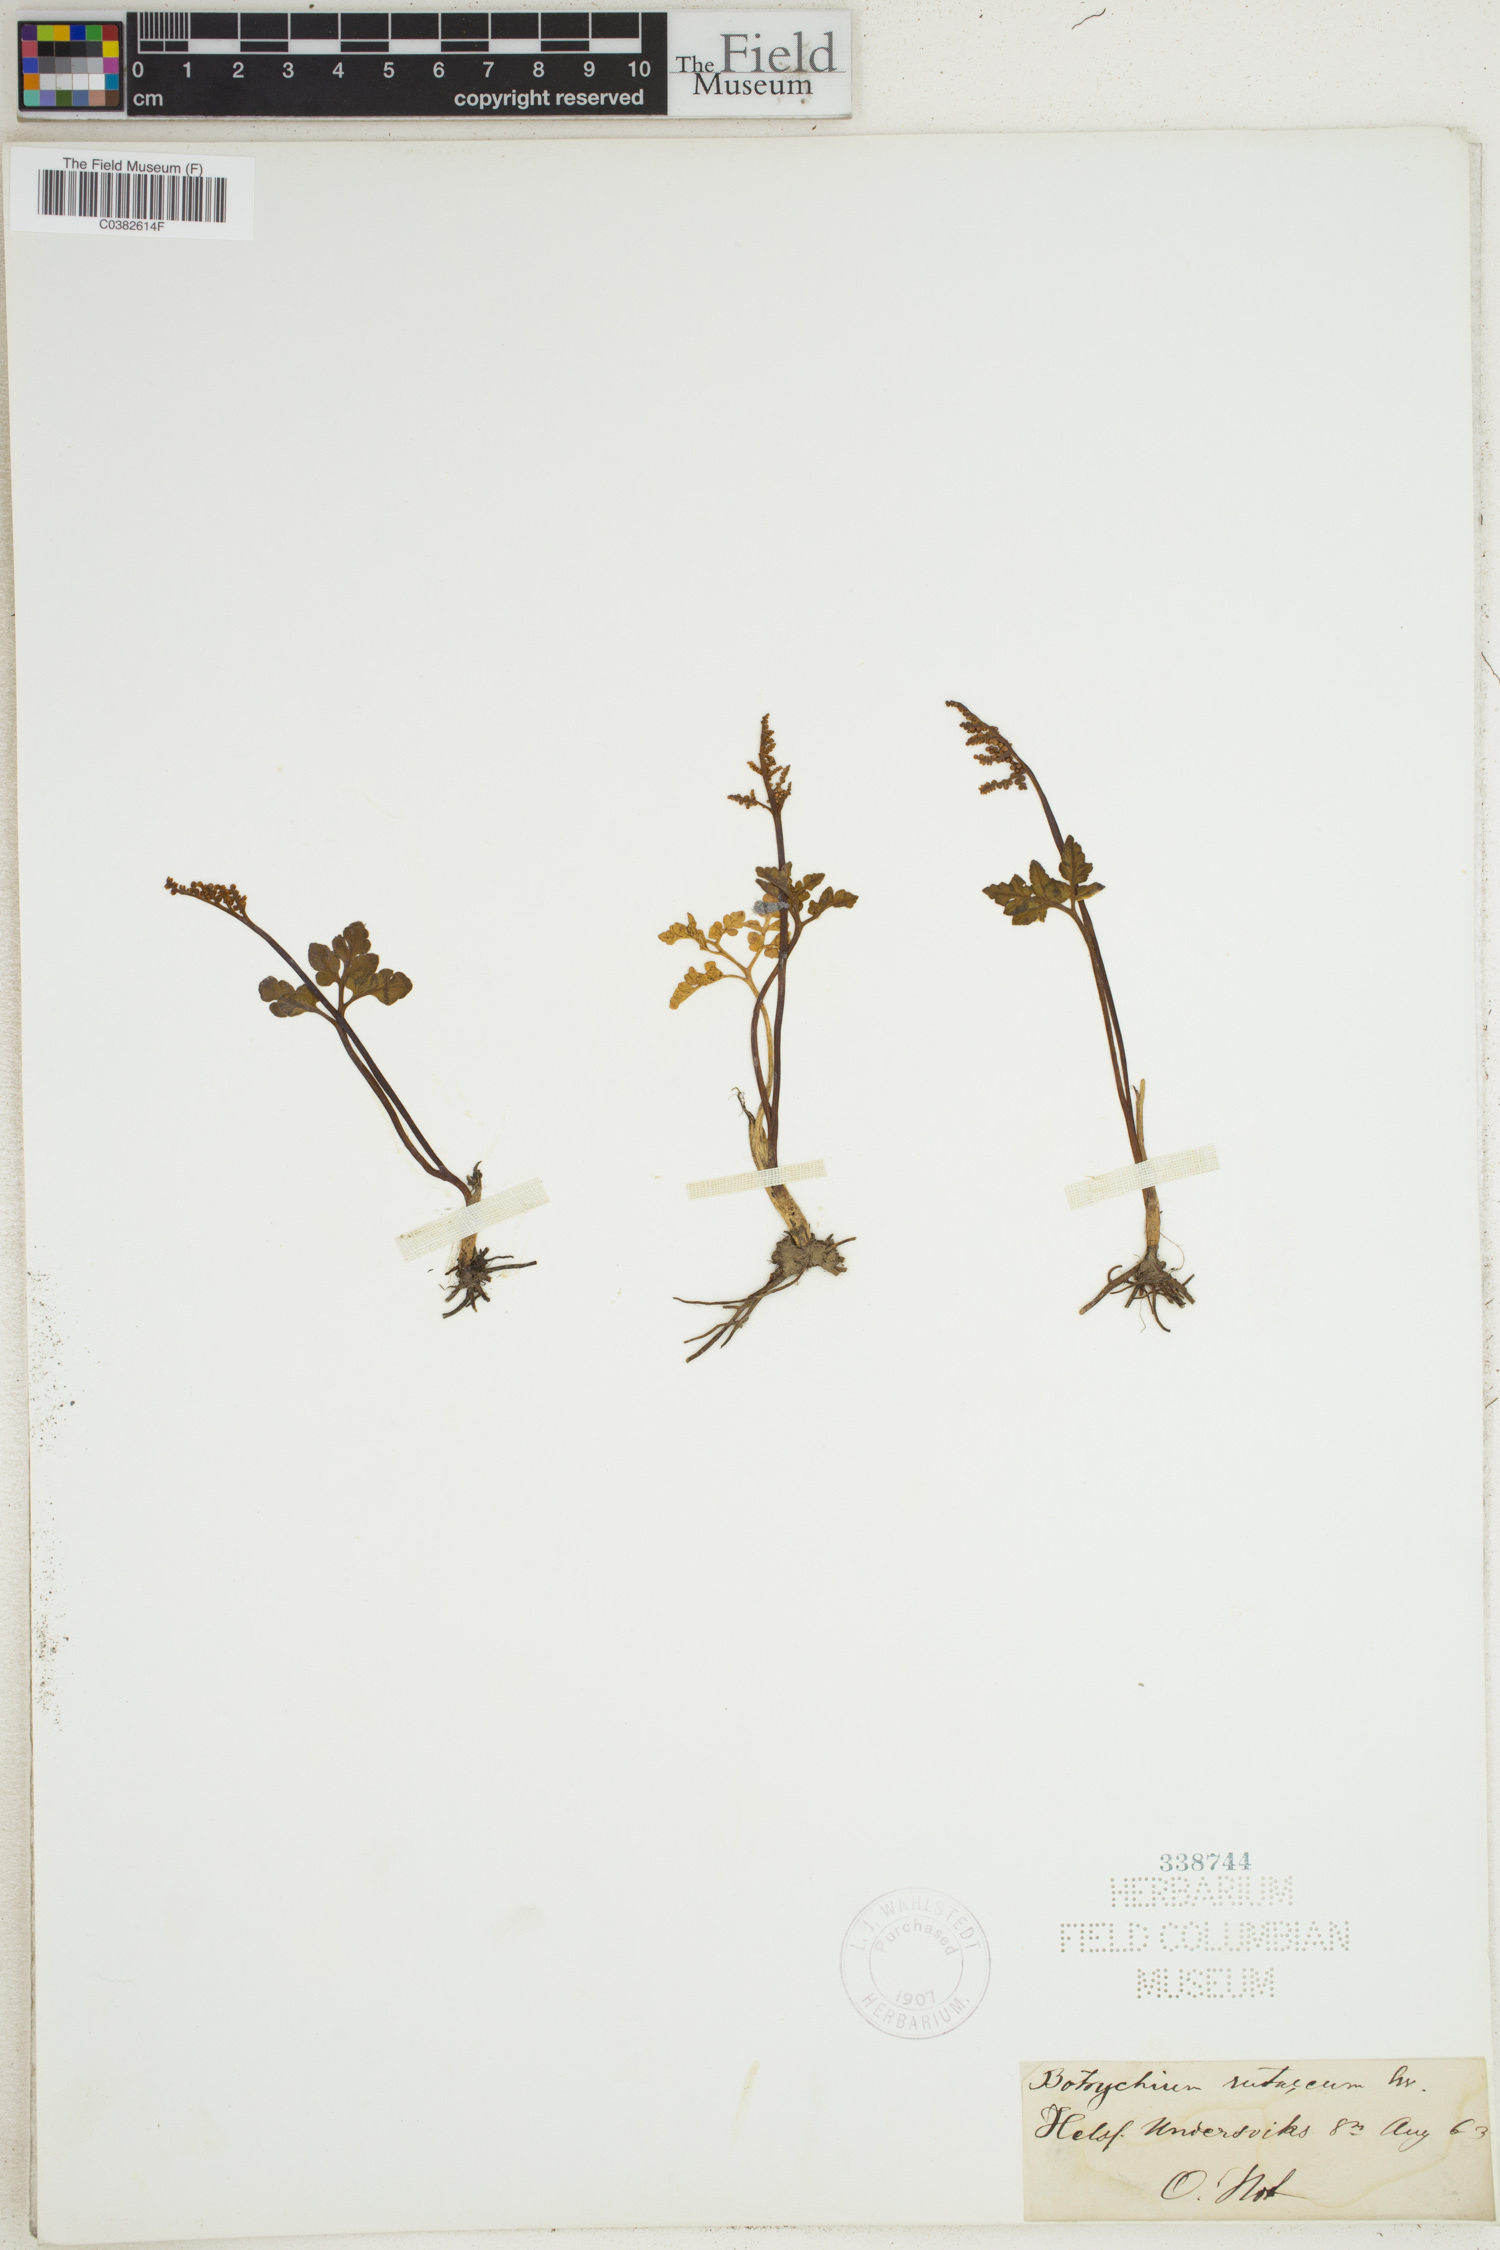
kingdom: Plantae
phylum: Tracheophyta
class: Polypodiopsida
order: Ophioglossales
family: Ophioglossaceae
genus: Botrychium
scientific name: Botrychium matricariifolium
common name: Branched moonwort
